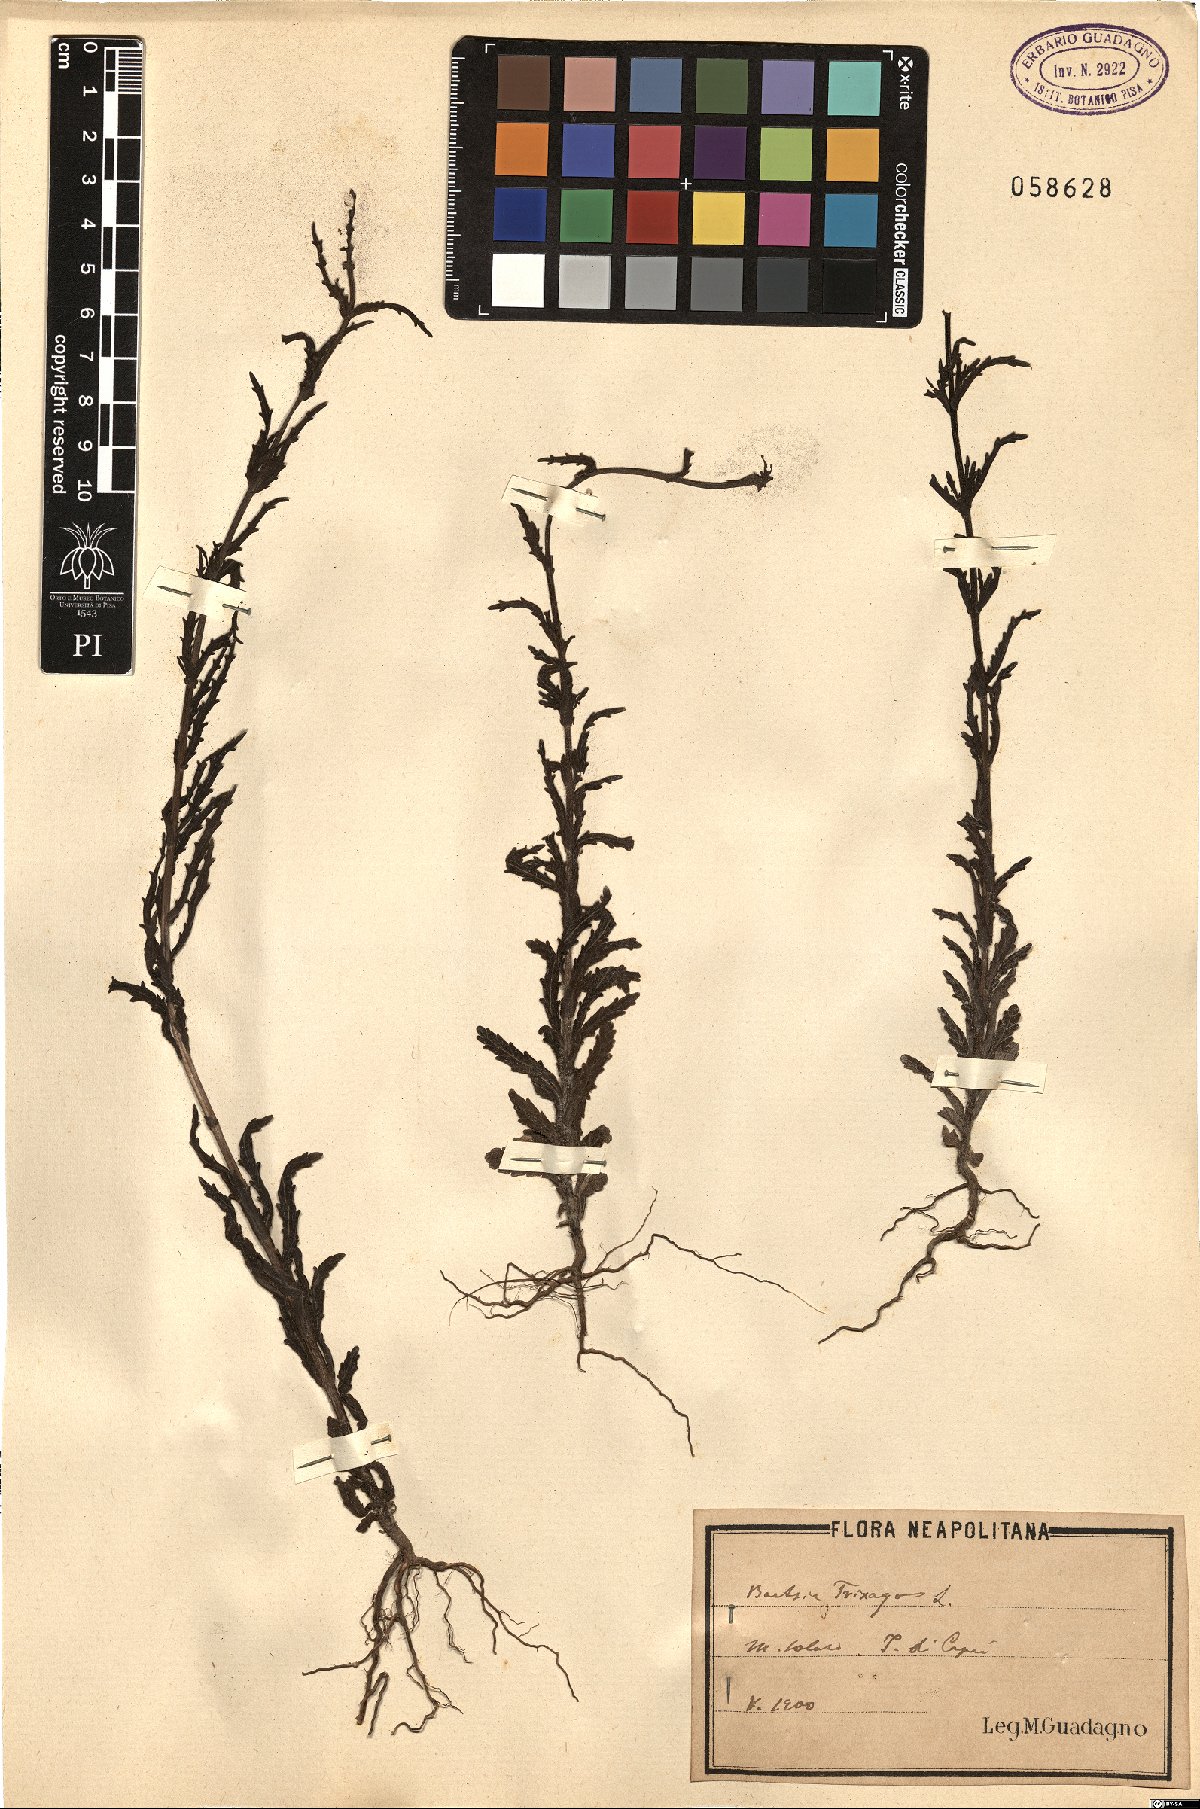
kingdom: Plantae
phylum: Tracheophyta
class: Magnoliopsida
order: Lamiales
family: Orobanchaceae
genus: Bellardia
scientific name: Bellardia trixago
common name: Mediterranean lineseed
